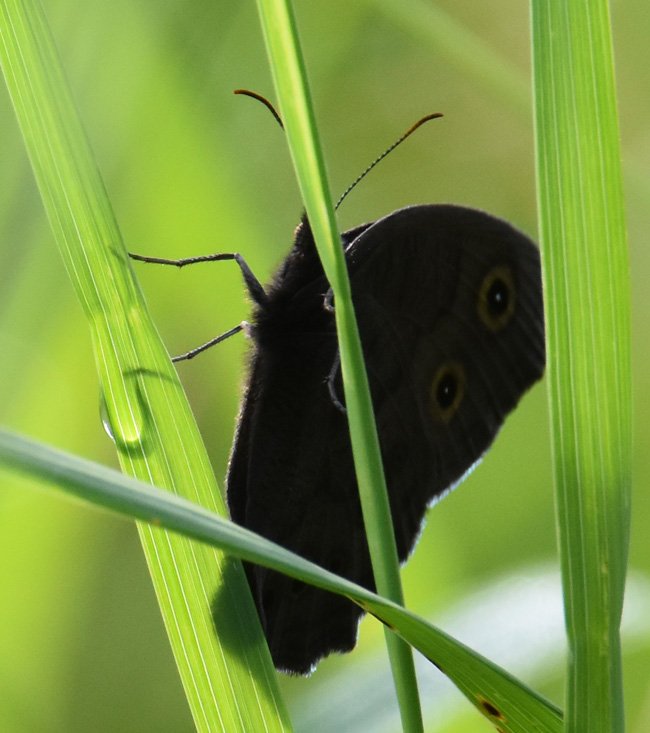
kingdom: Animalia
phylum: Arthropoda
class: Insecta
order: Lepidoptera
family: Nymphalidae
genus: Cercyonis
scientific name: Cercyonis pegala
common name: Common Wood-Nymph
